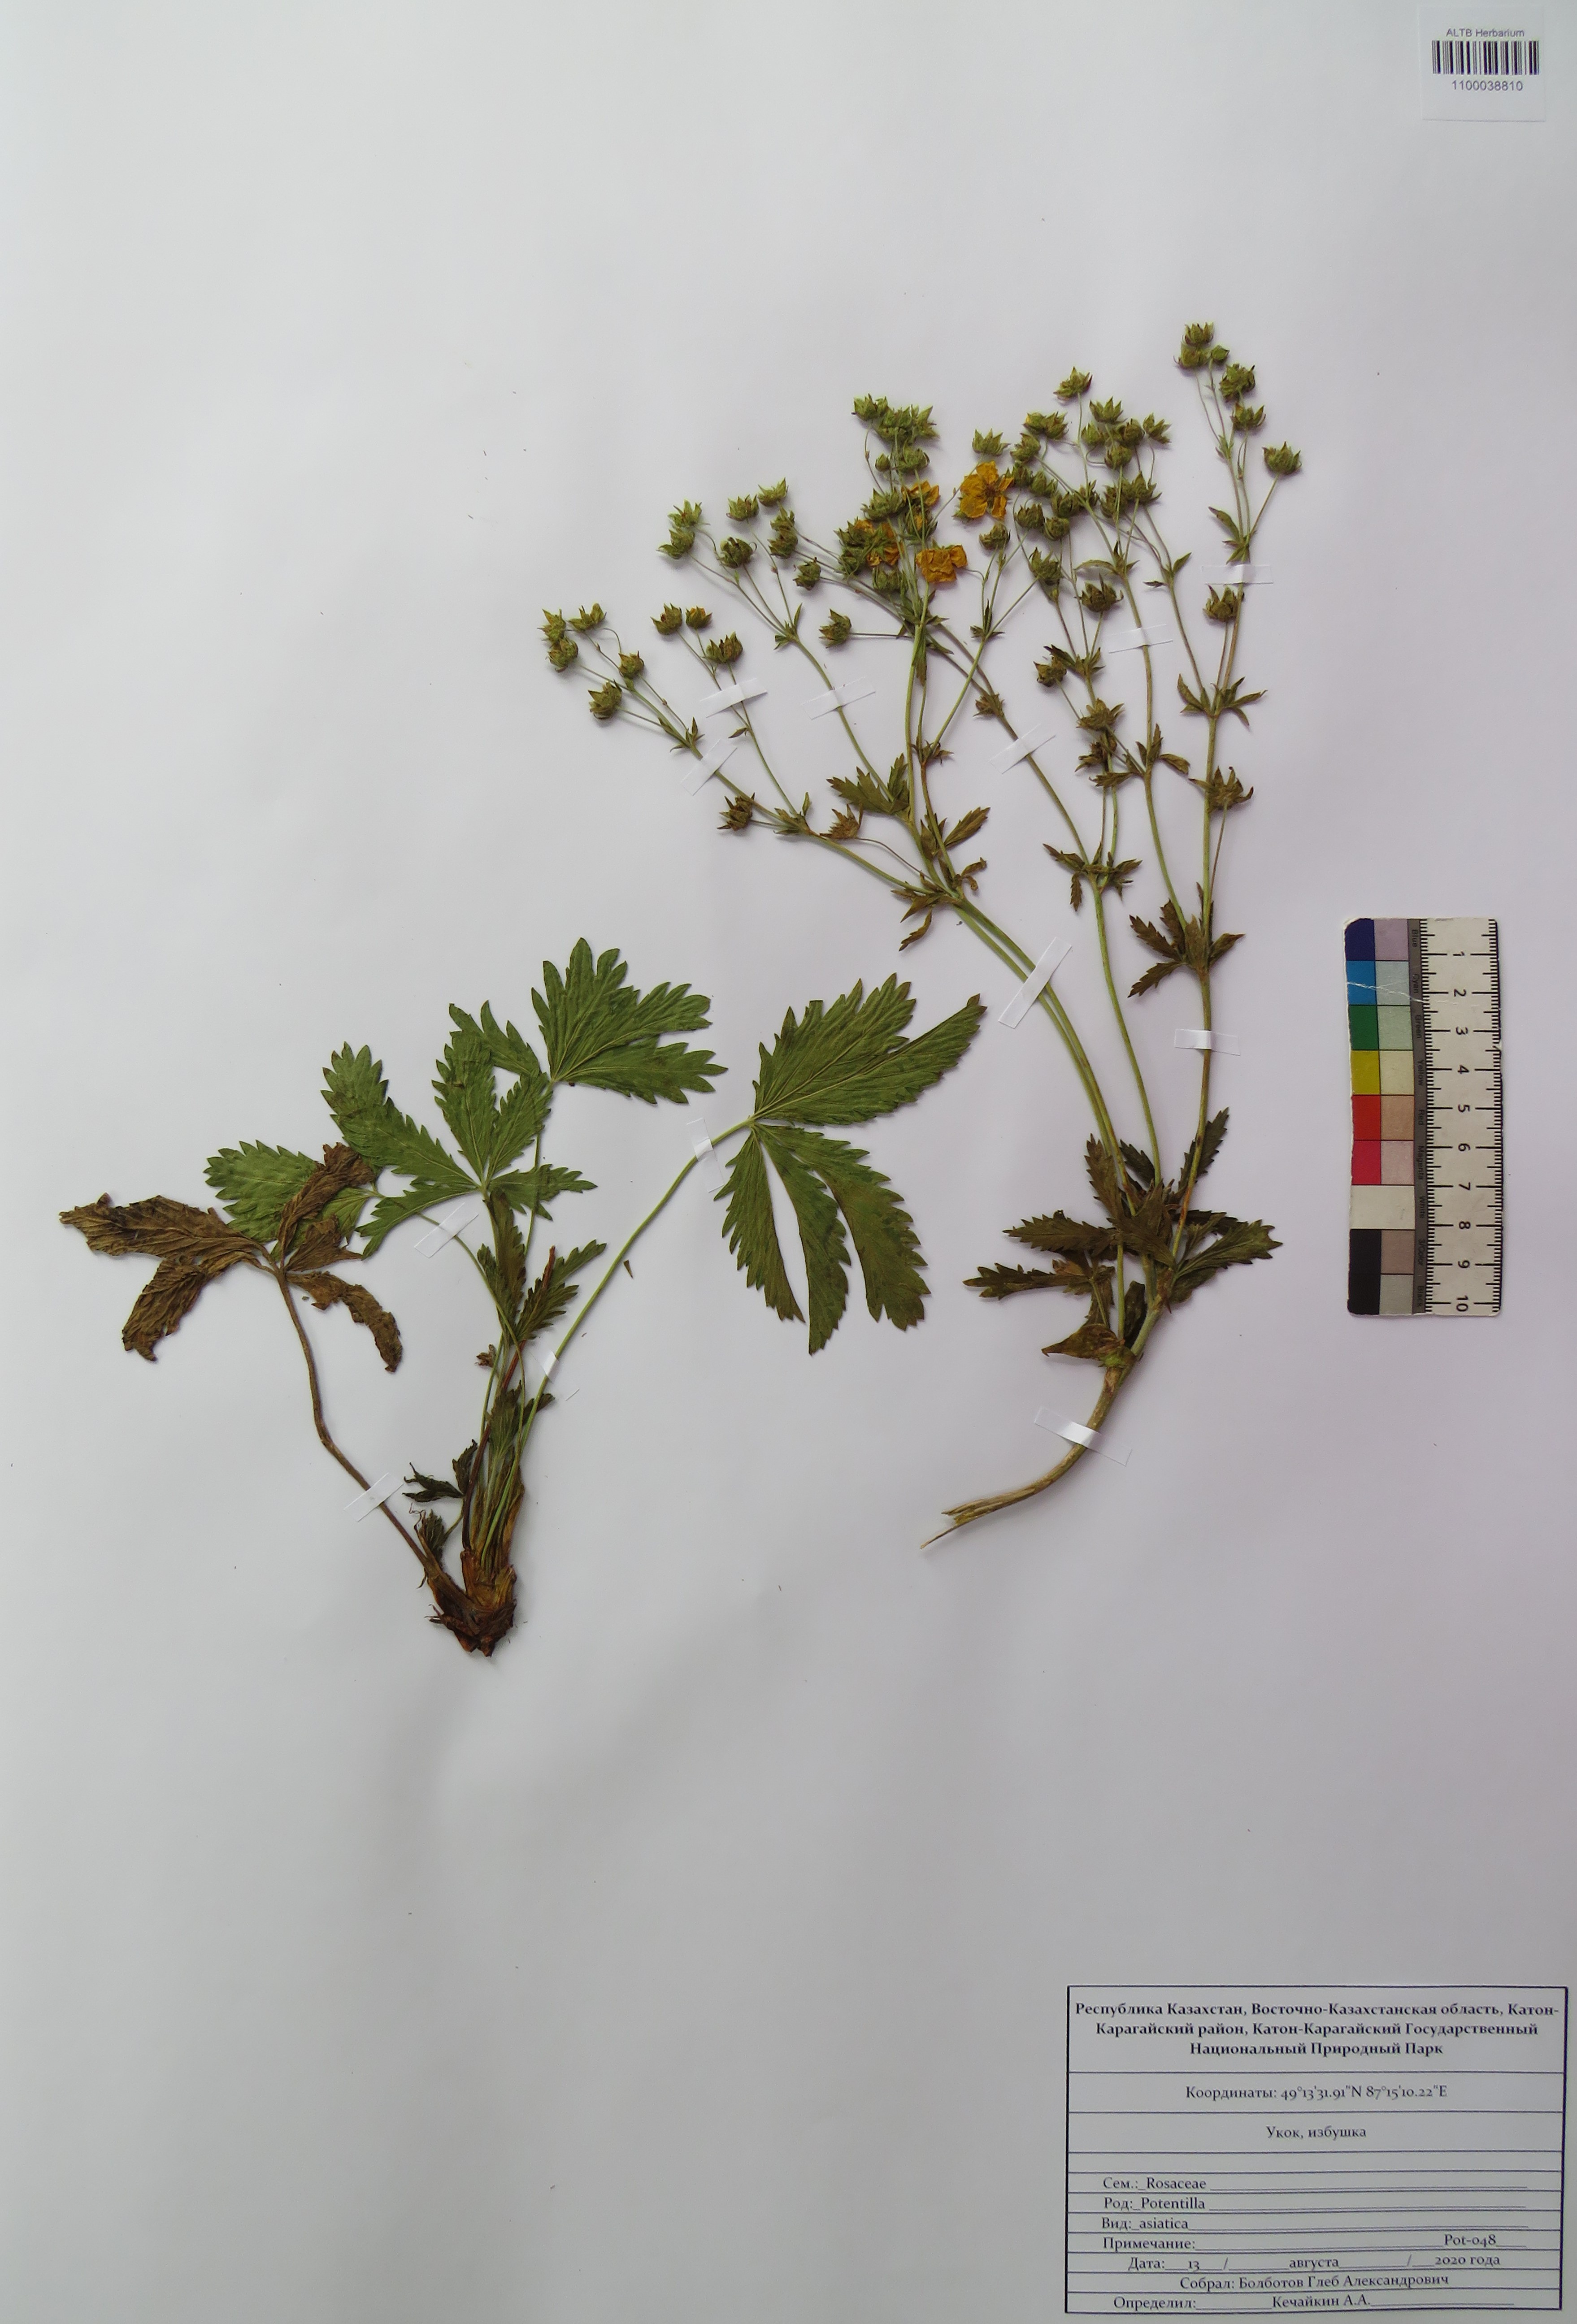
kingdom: Plantae
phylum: Tracheophyta
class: Magnoliopsida
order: Rosales
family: Rosaceae
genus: Potentilla
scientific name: Potentilla asiatica
